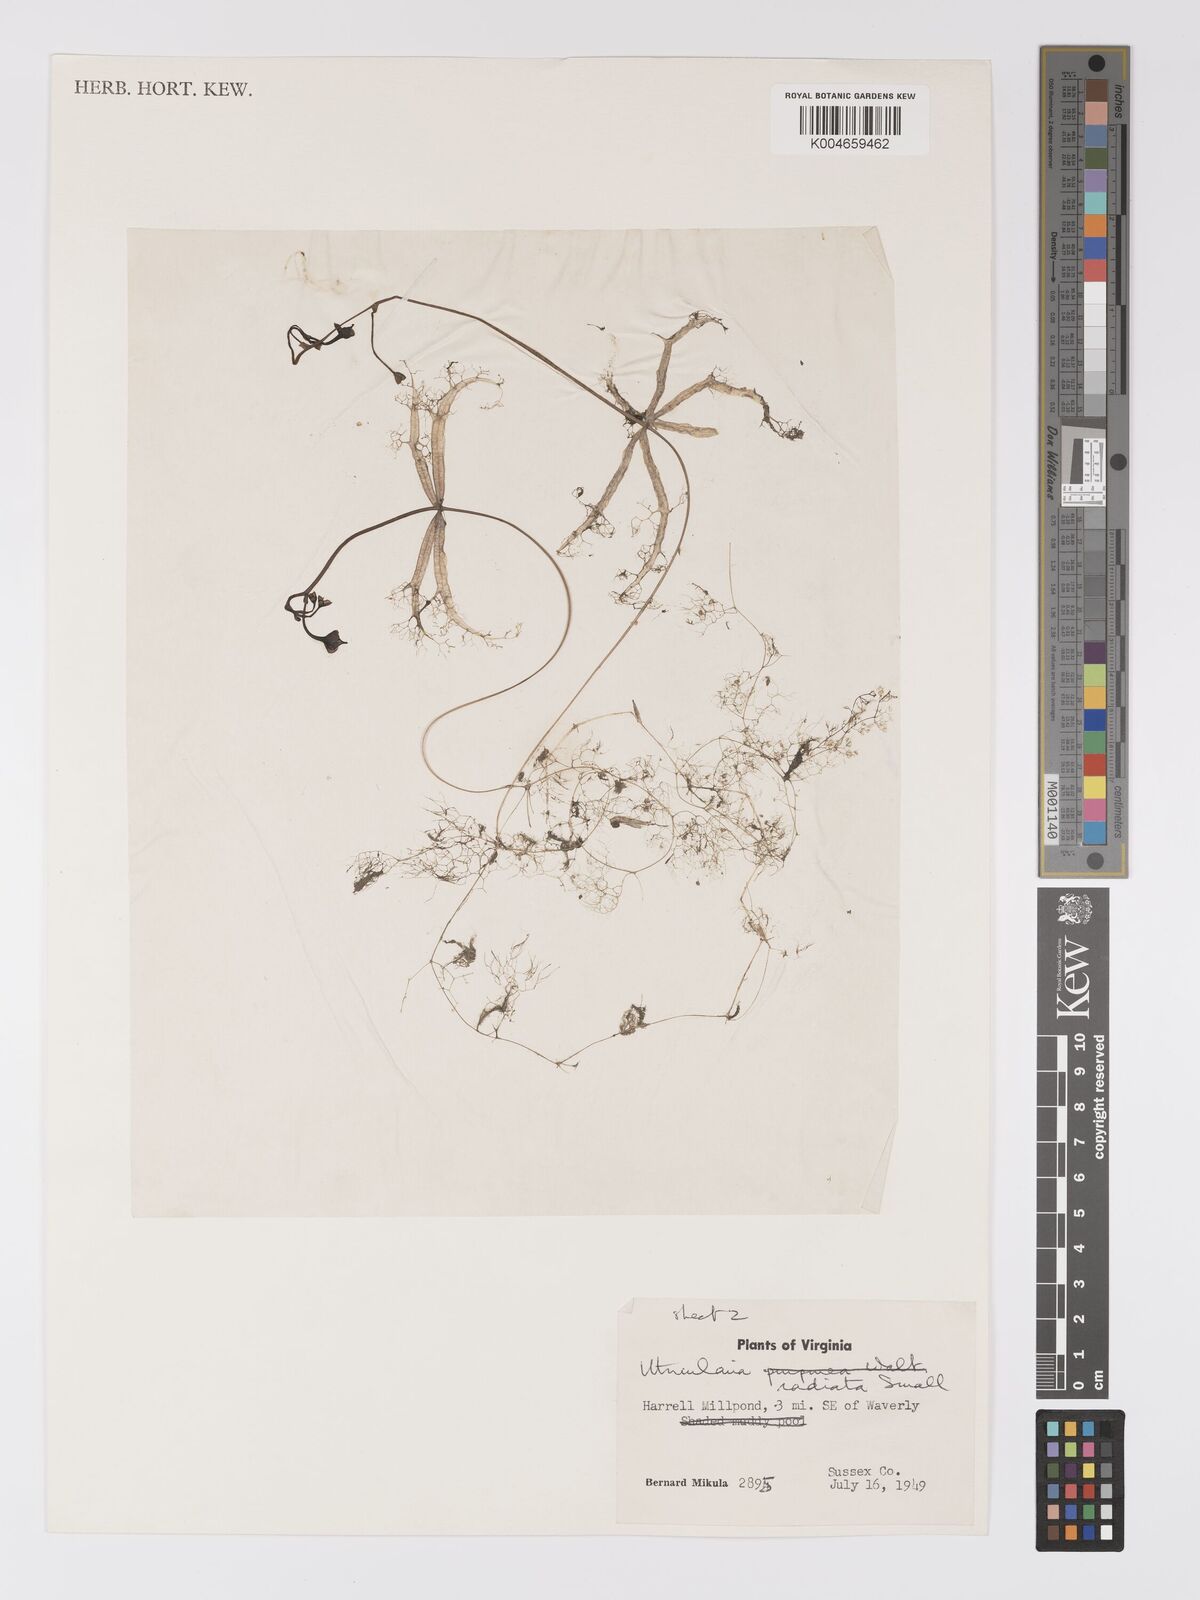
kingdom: Plantae
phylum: Tracheophyta
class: Magnoliopsida
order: Lamiales
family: Lentibulariaceae
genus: Utricularia
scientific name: Utricularia radiata
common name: Floating bladderwort
